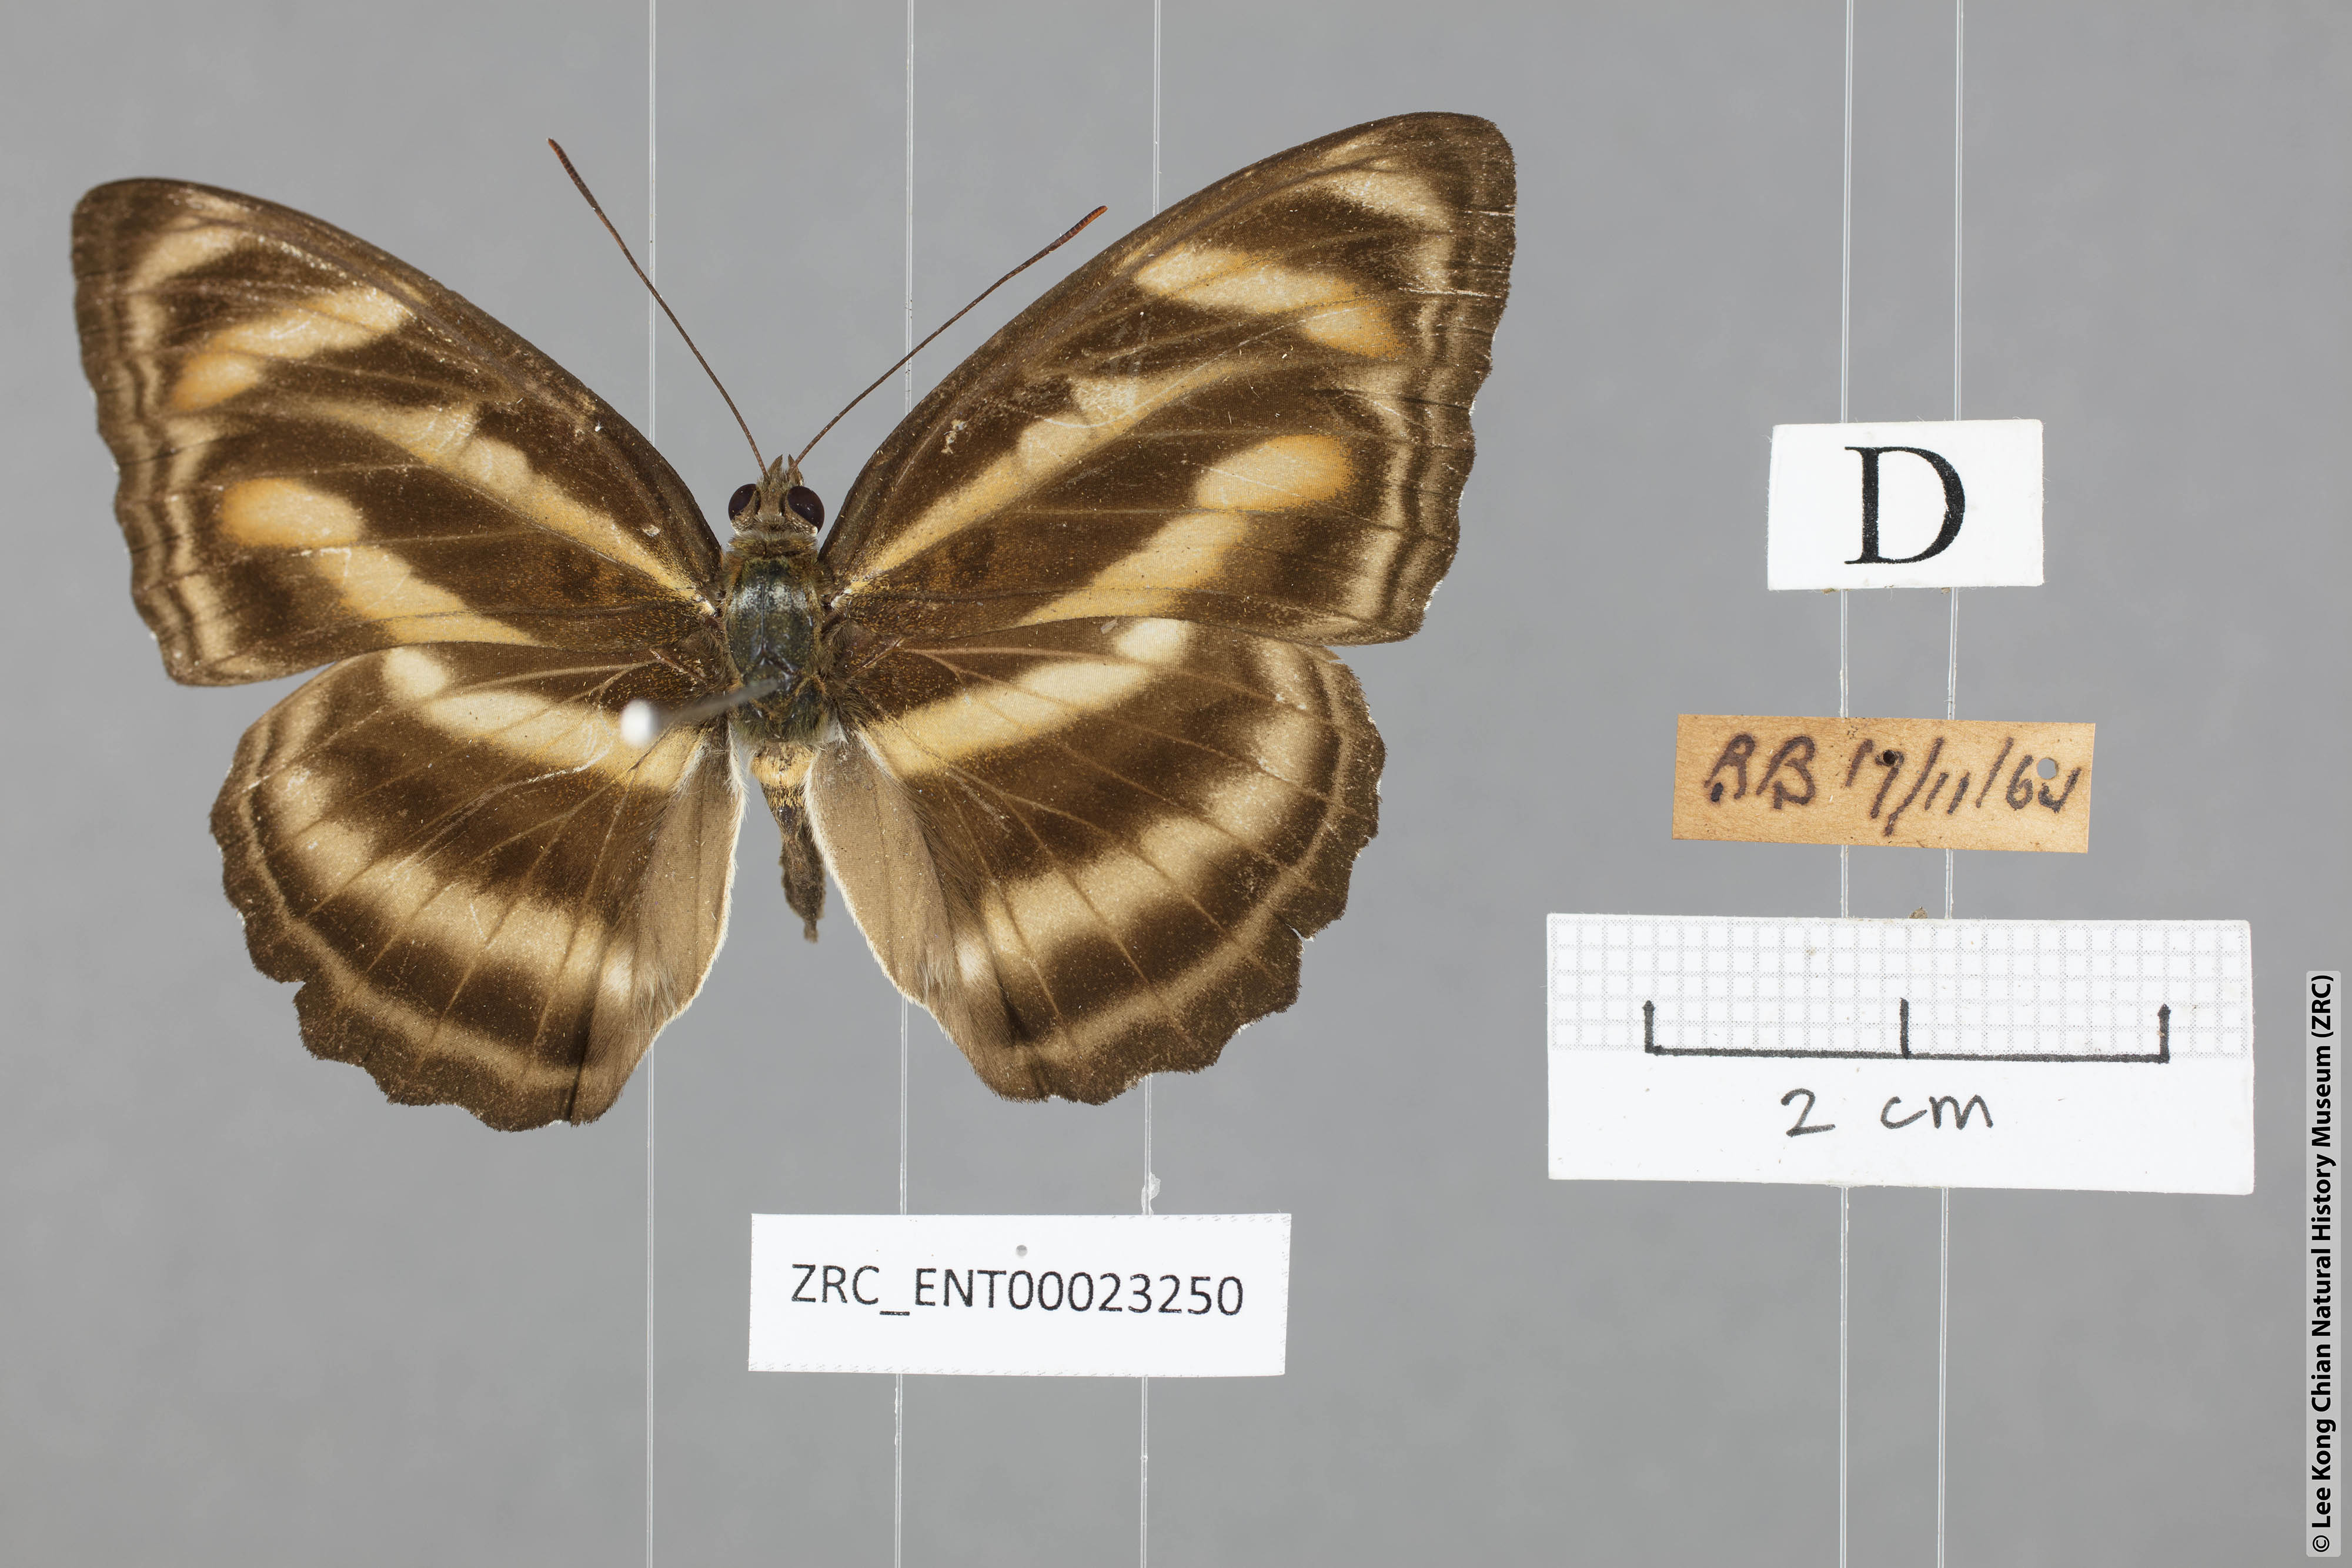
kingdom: Animalia
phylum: Arthropoda
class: Insecta
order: Lepidoptera
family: Nymphalidae
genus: Parathyma
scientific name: Parathyma nefte
